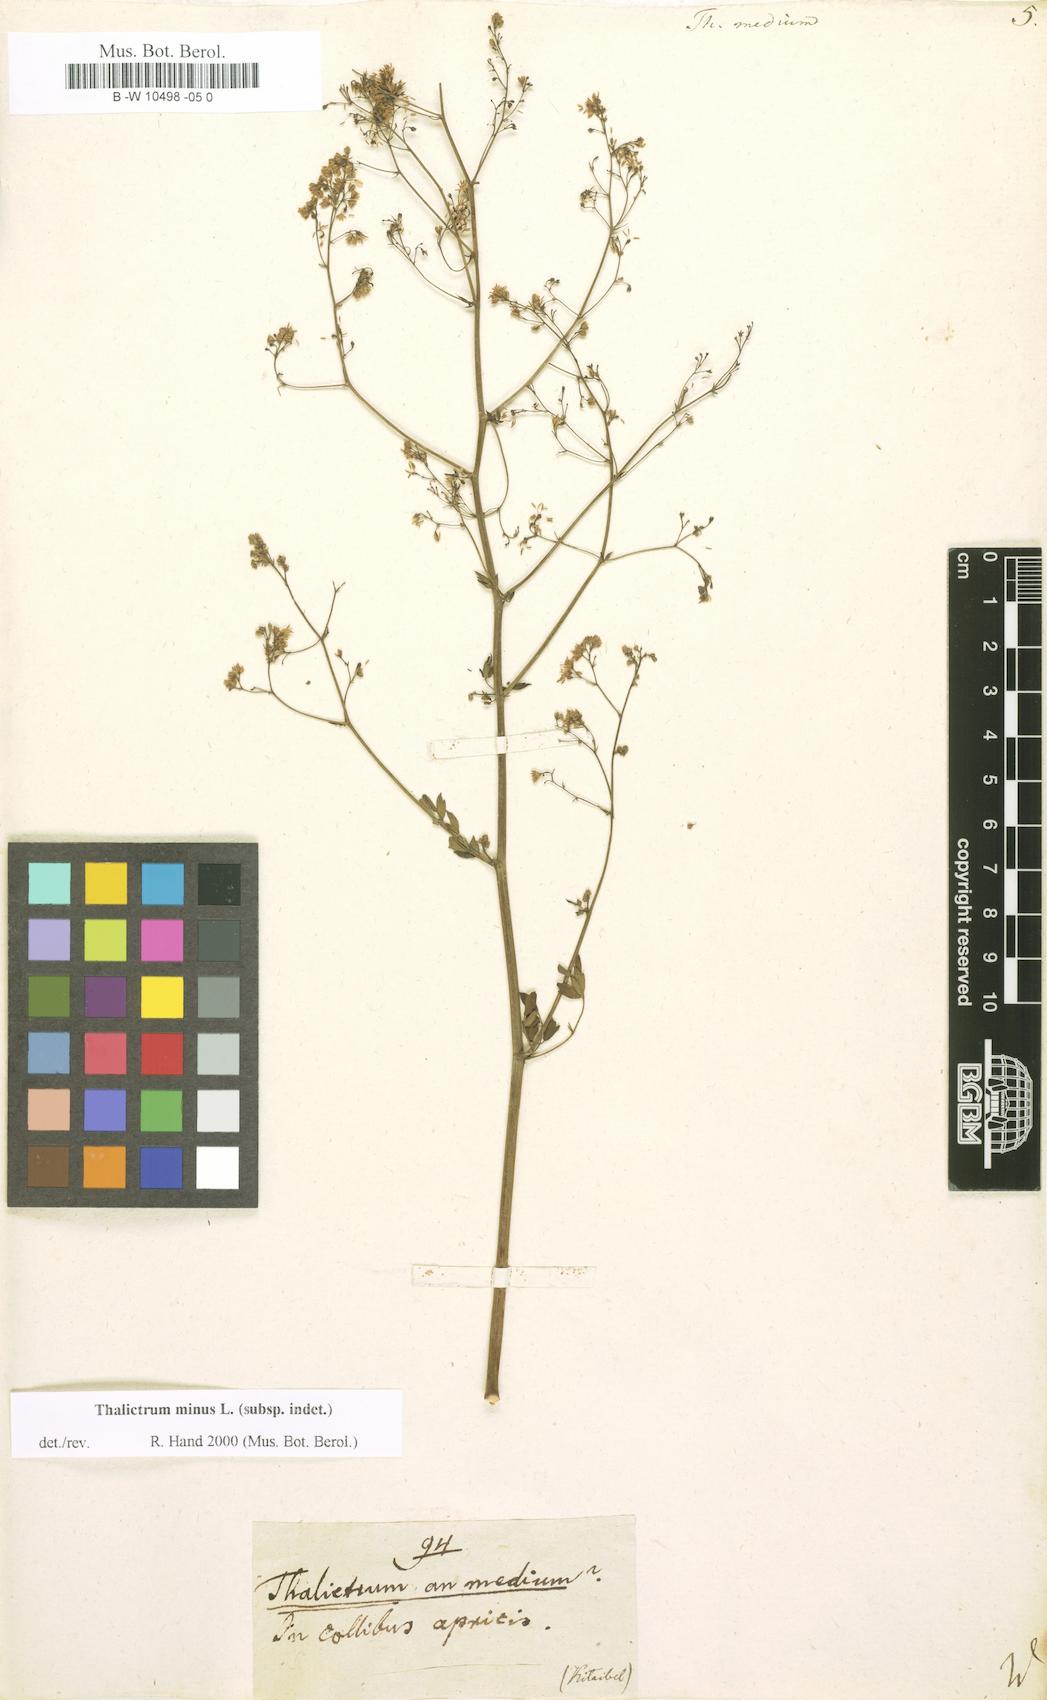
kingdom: Plantae
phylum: Tracheophyta
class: Magnoliopsida
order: Ranunculales
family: Ranunculaceae
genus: Thalictrum
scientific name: Thalictrum medium
